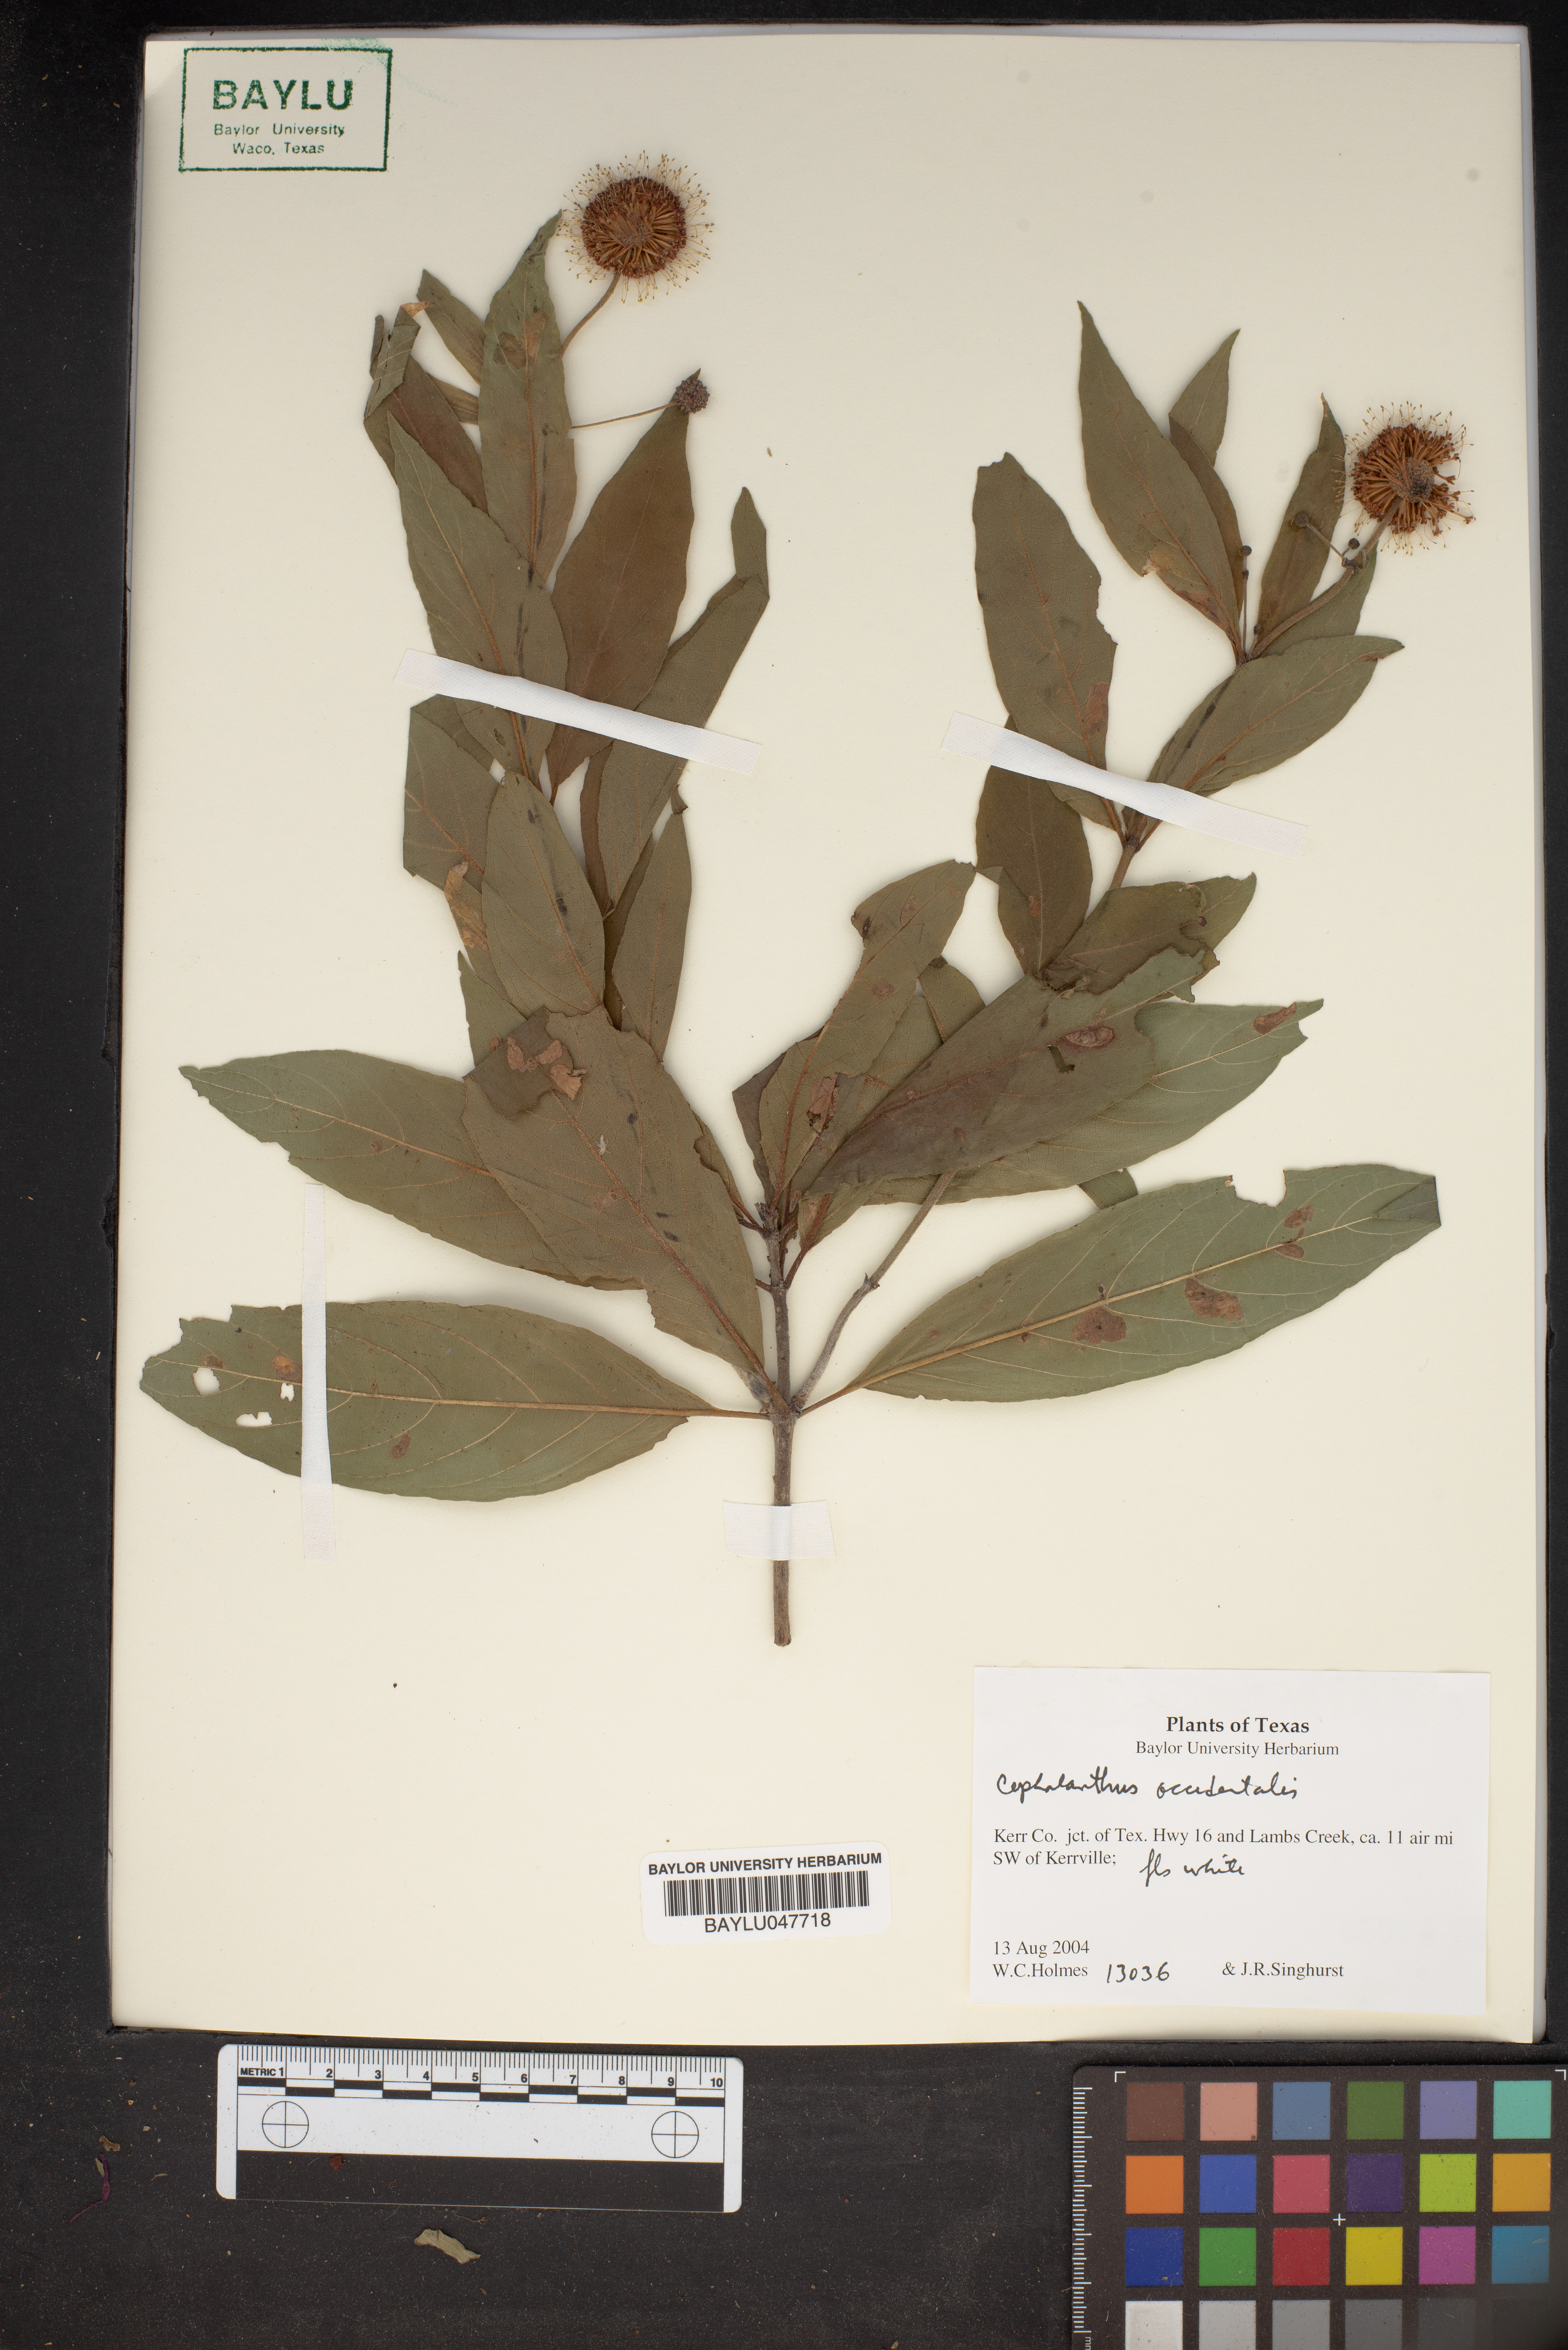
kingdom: Plantae
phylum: Tracheophyta
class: Magnoliopsida
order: Gentianales
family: Rubiaceae
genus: Cephalanthus
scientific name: Cephalanthus occidentalis
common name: Button-willow
